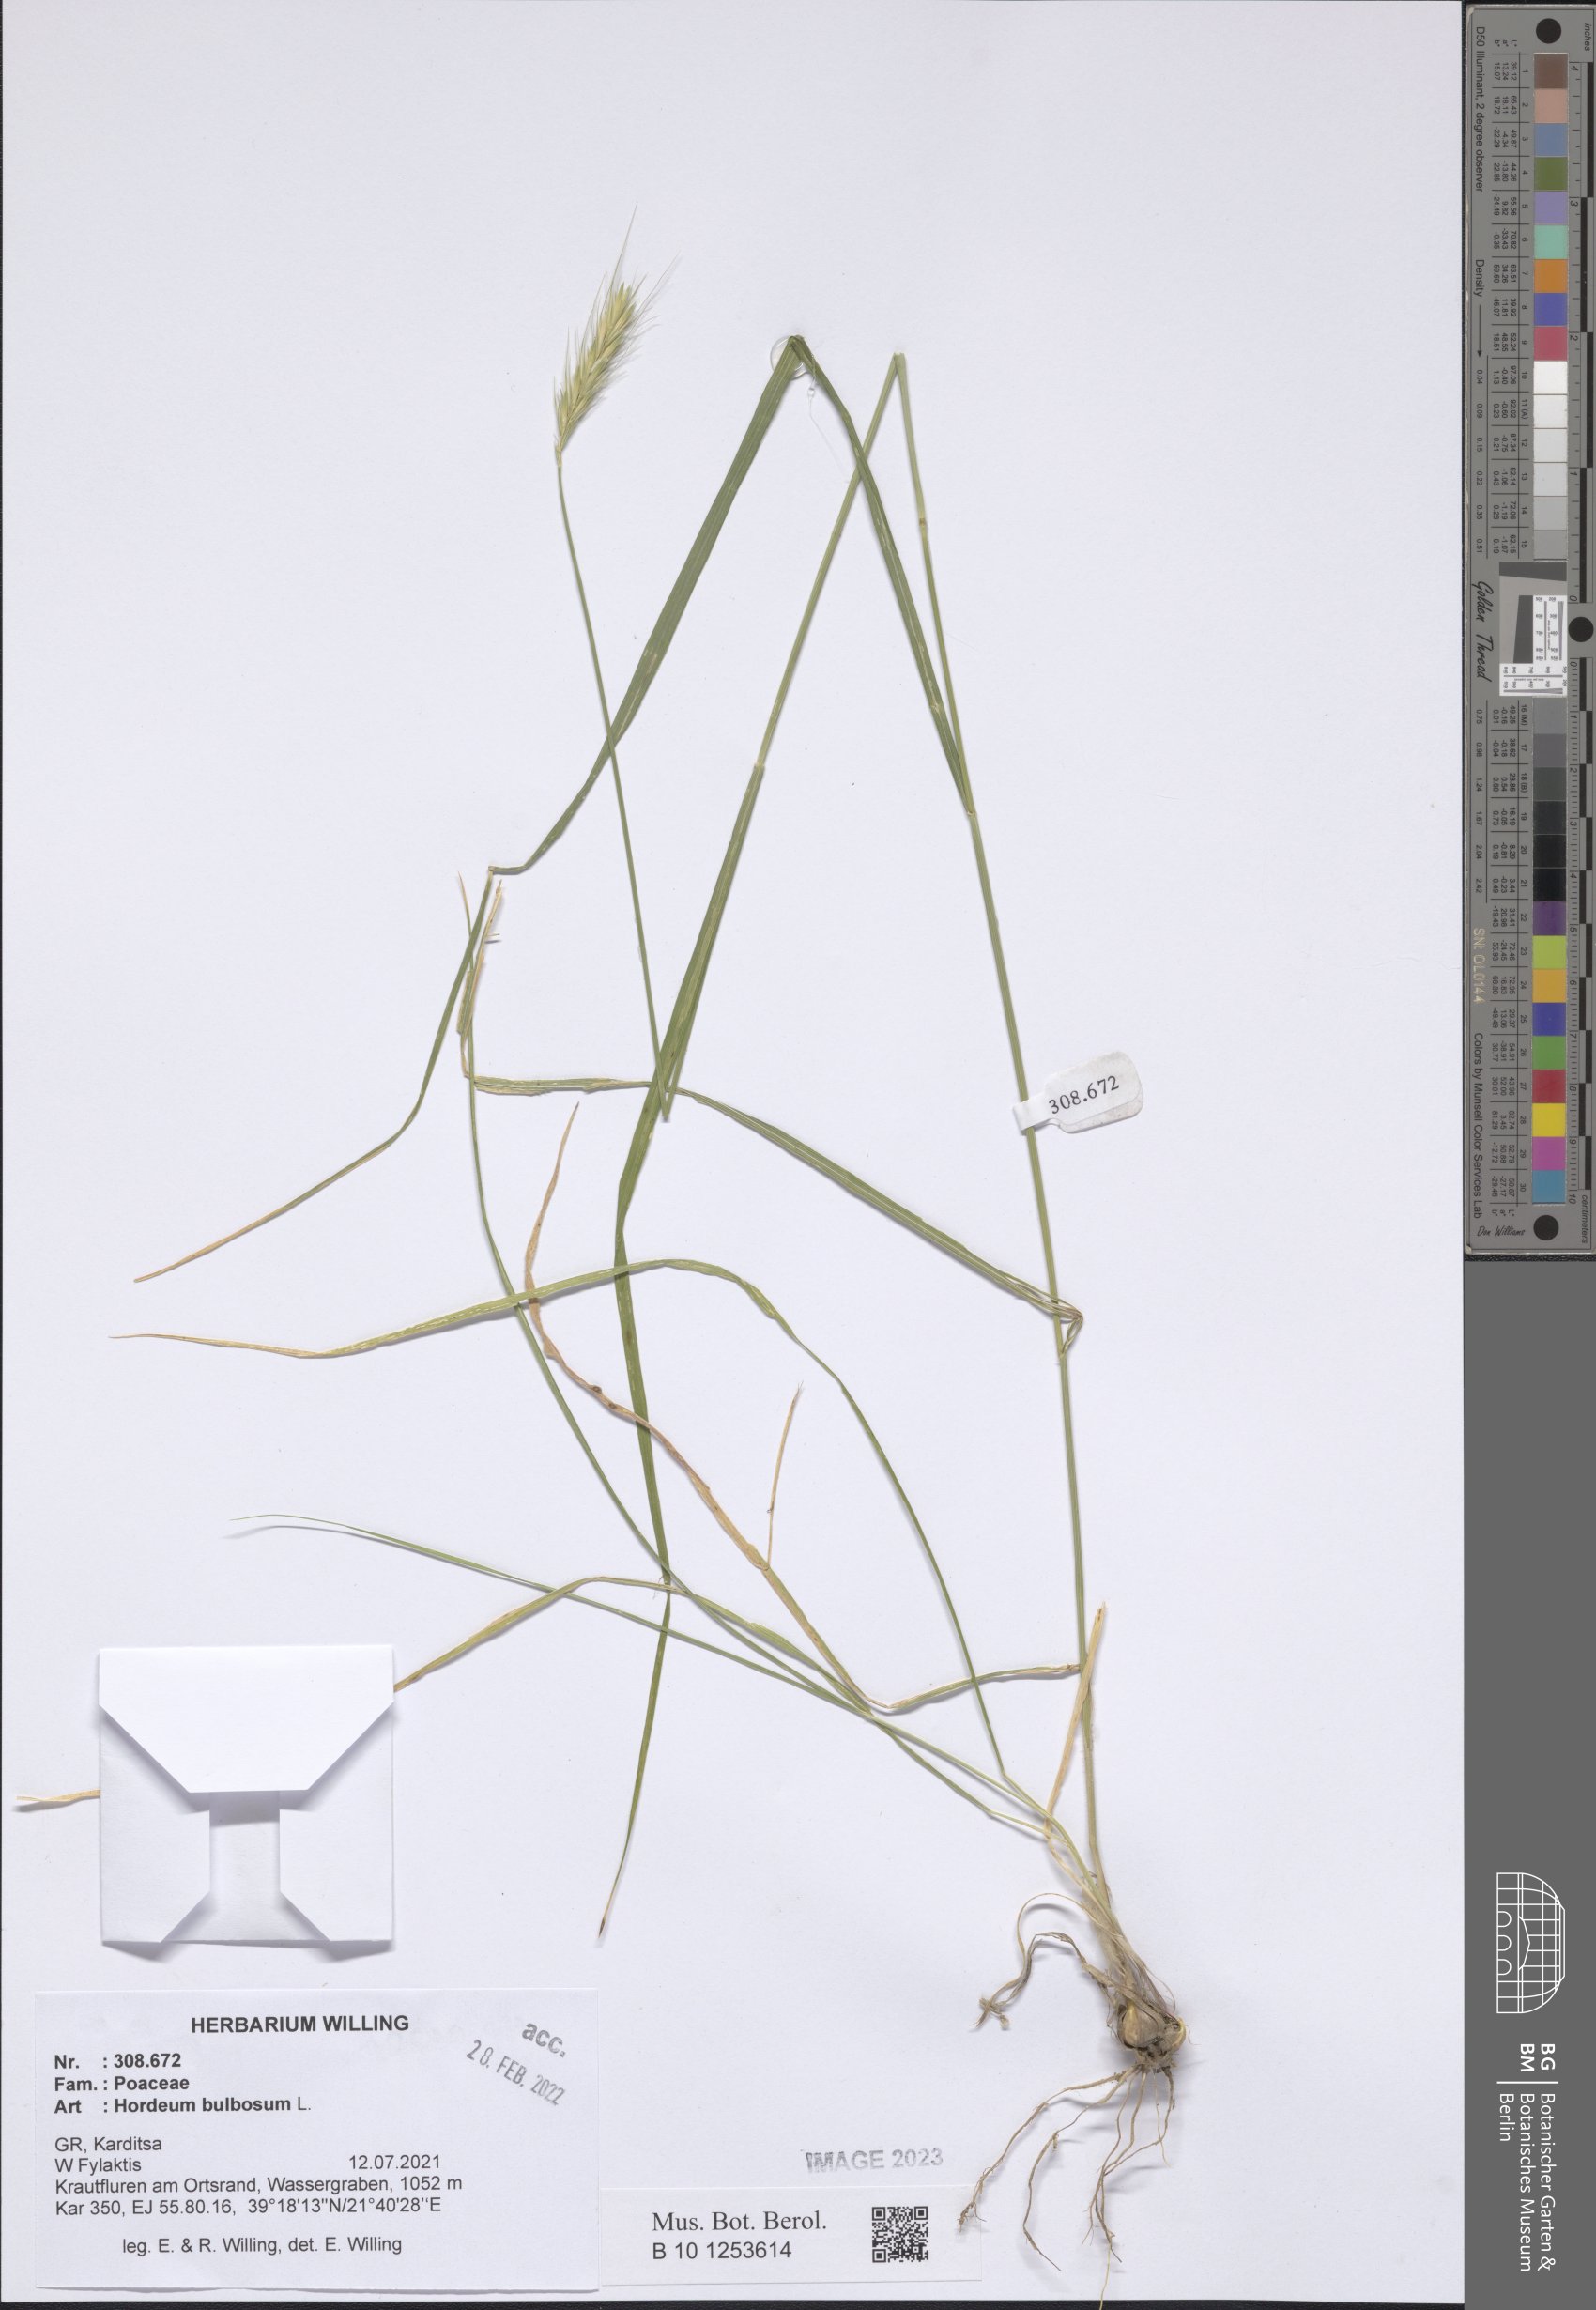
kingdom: Plantae
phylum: Tracheophyta
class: Liliopsida
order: Poales
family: Poaceae
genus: Hordeum
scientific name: Hordeum bulbosum
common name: Bulbous barley
